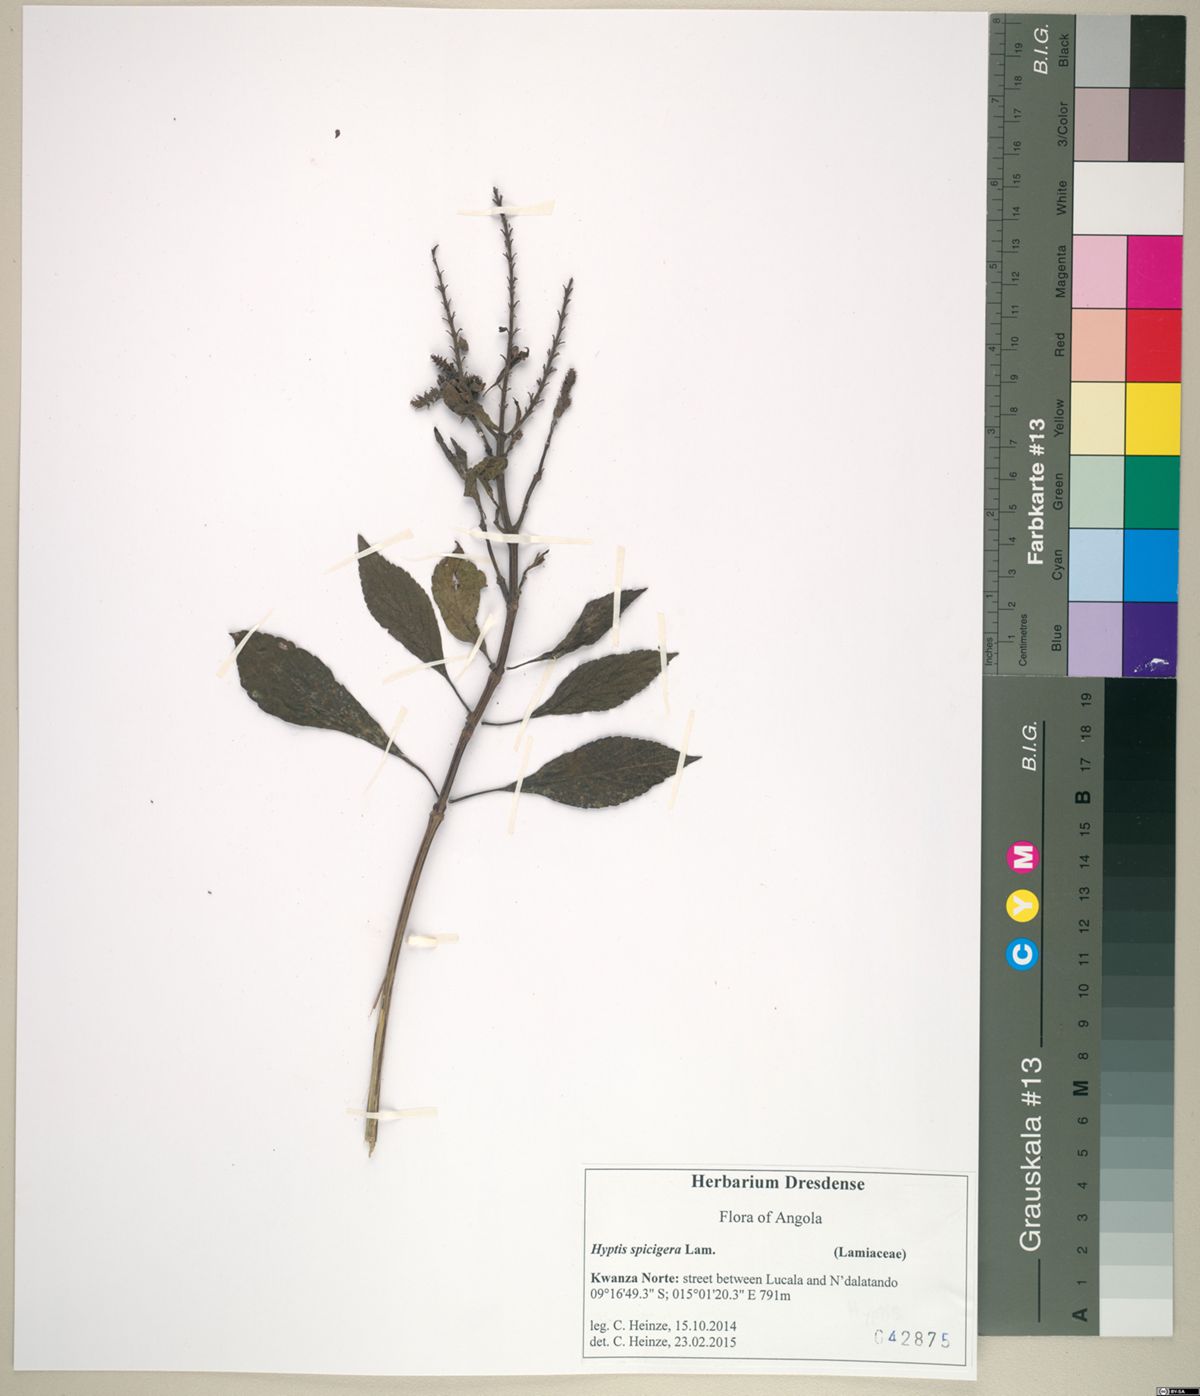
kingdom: Plantae
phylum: Tracheophyta
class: Magnoliopsida
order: Lamiales
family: Lamiaceae
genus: Cantinoa
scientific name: Cantinoa americana
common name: Black-sesame
